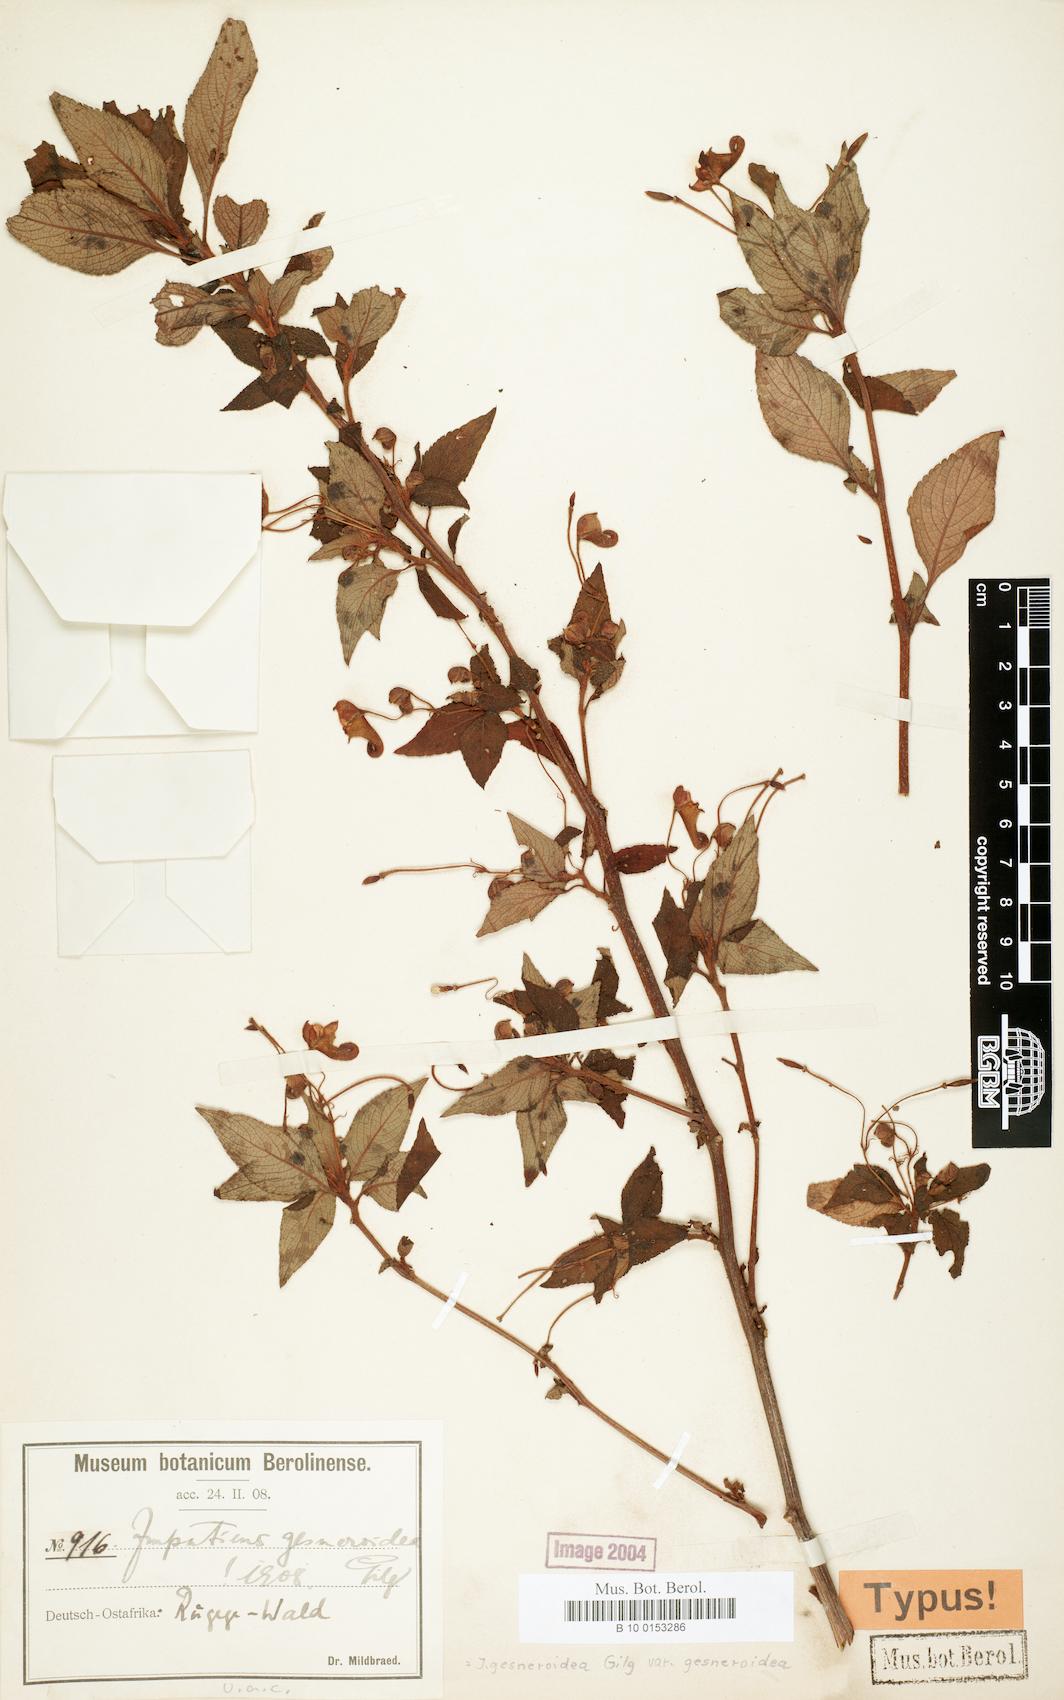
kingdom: Plantae
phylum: Tracheophyta
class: Magnoliopsida
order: Ericales
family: Balsaminaceae
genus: Impatiens
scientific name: Impatiens gesneroidea
